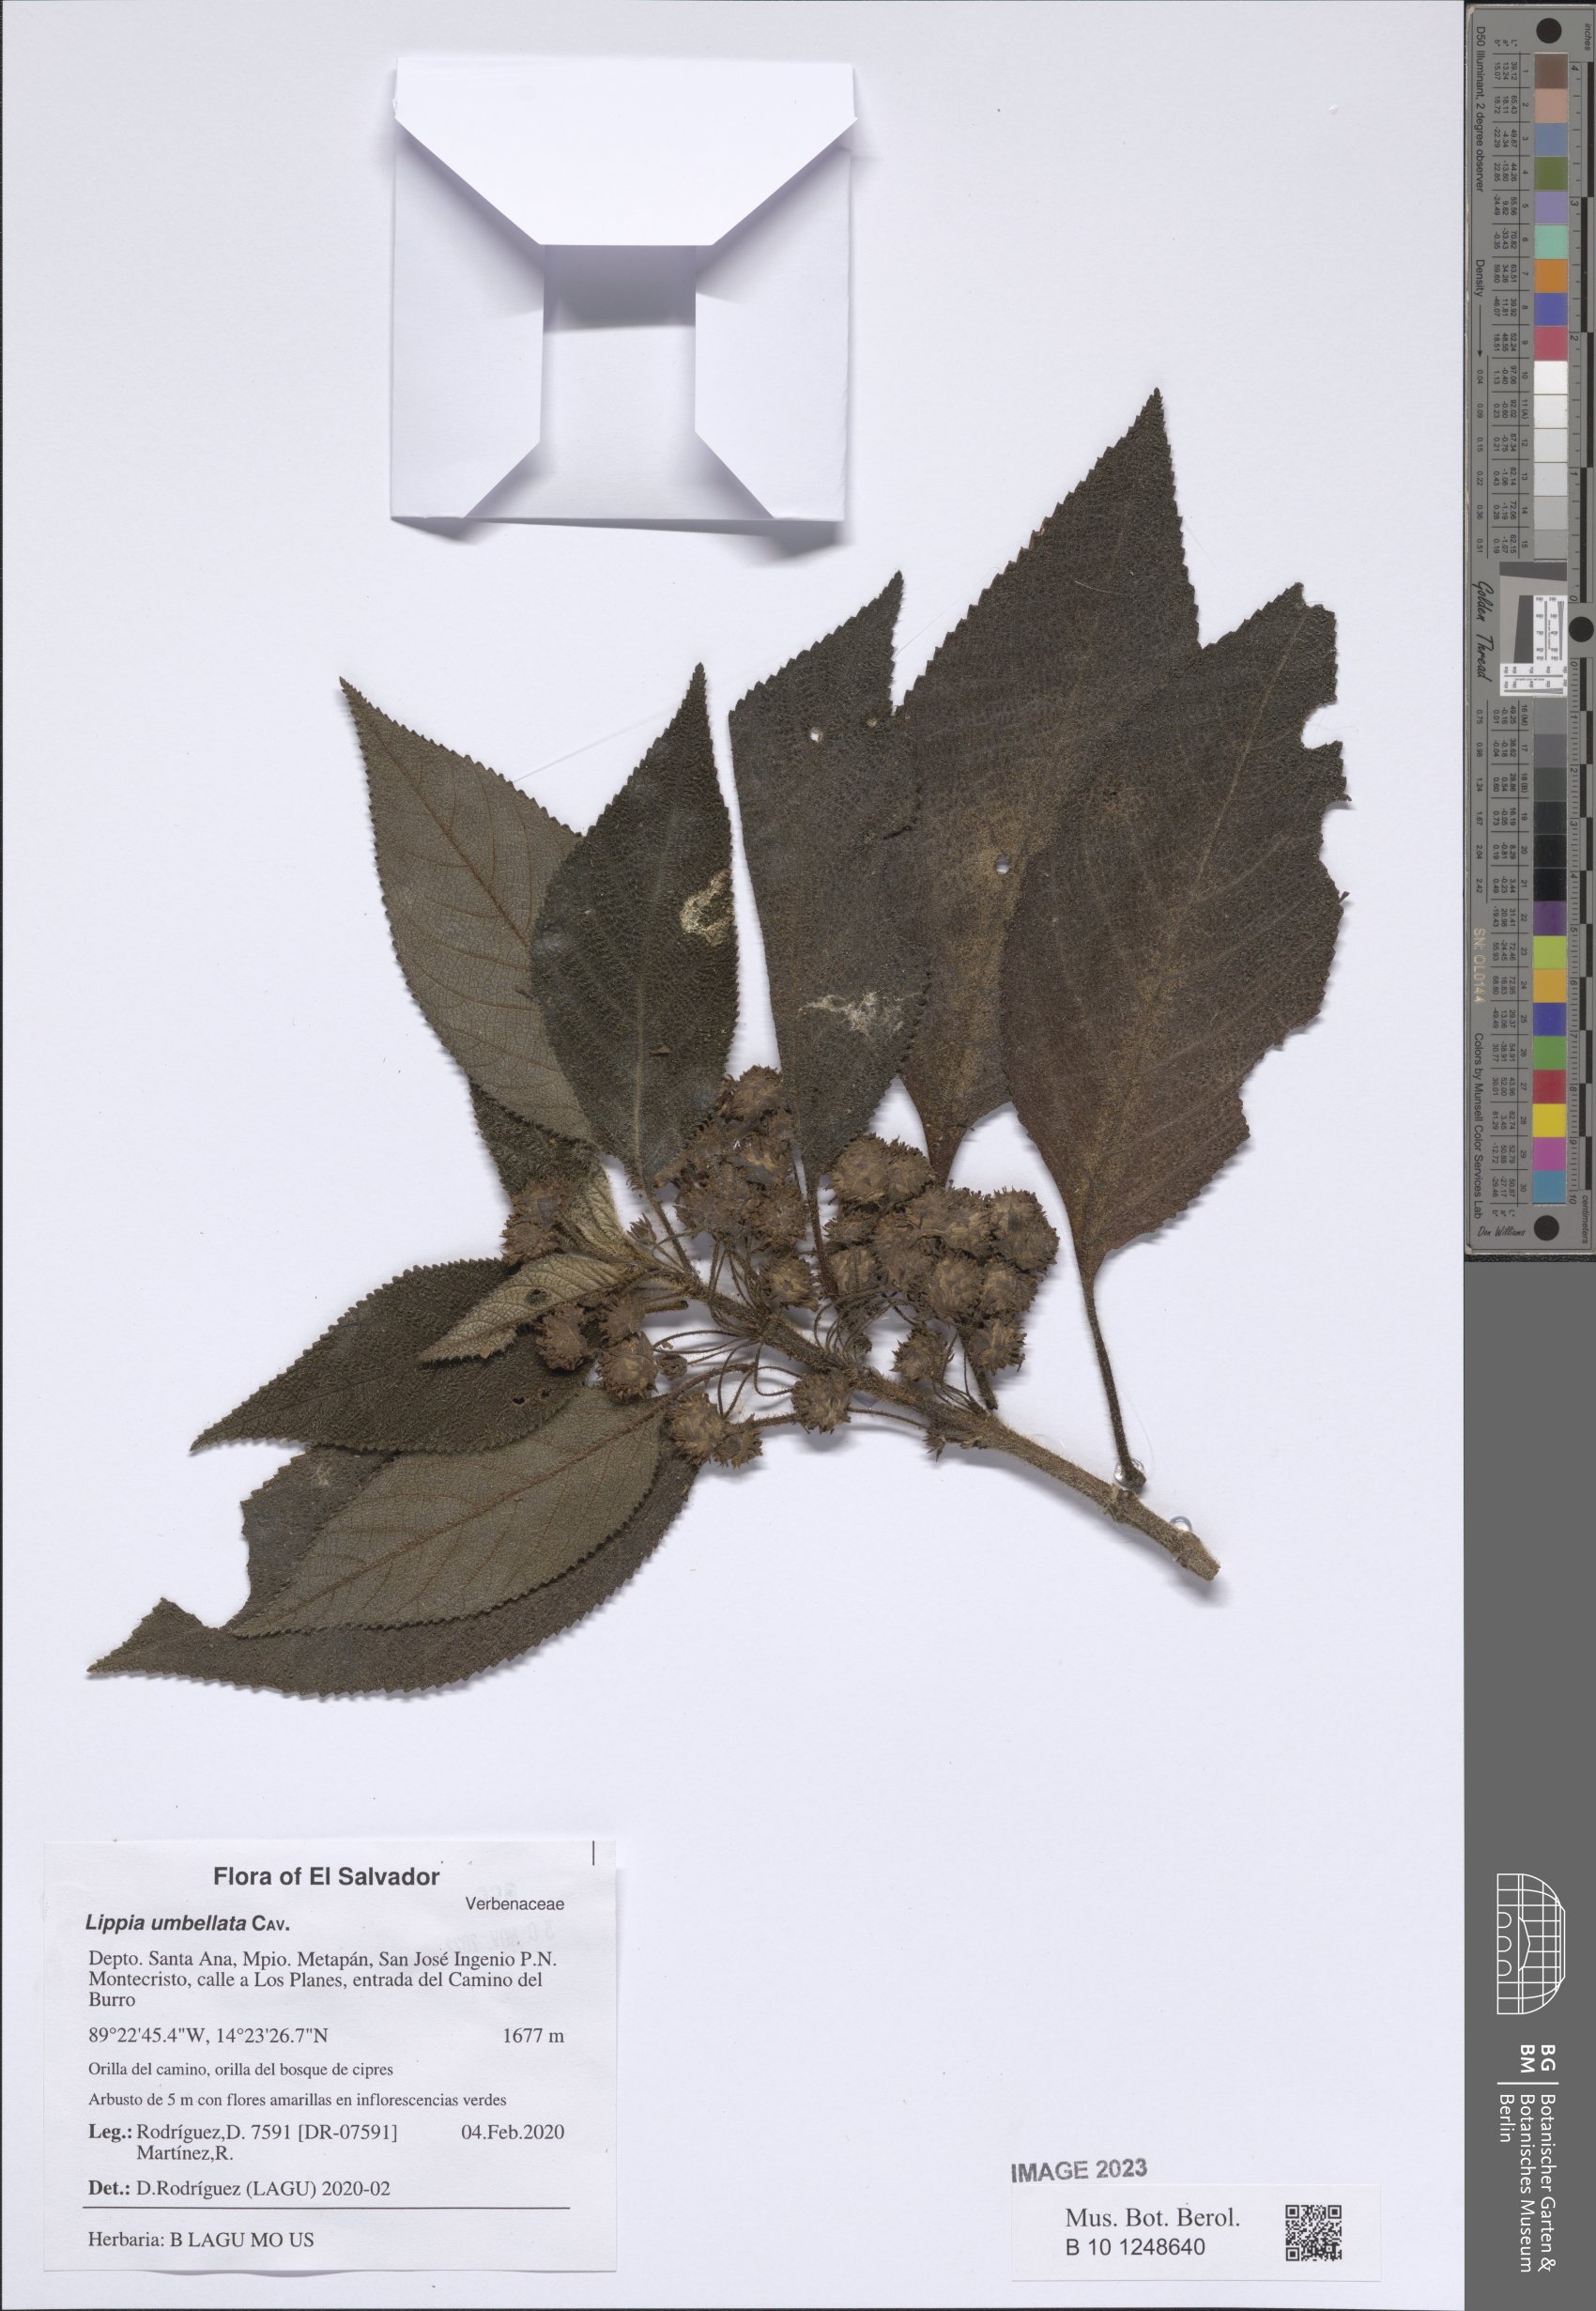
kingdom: Plantae
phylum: Tracheophyta
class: Magnoliopsida
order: Lamiales
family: Verbenaceae
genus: Lippia
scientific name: Lippia umbellata
